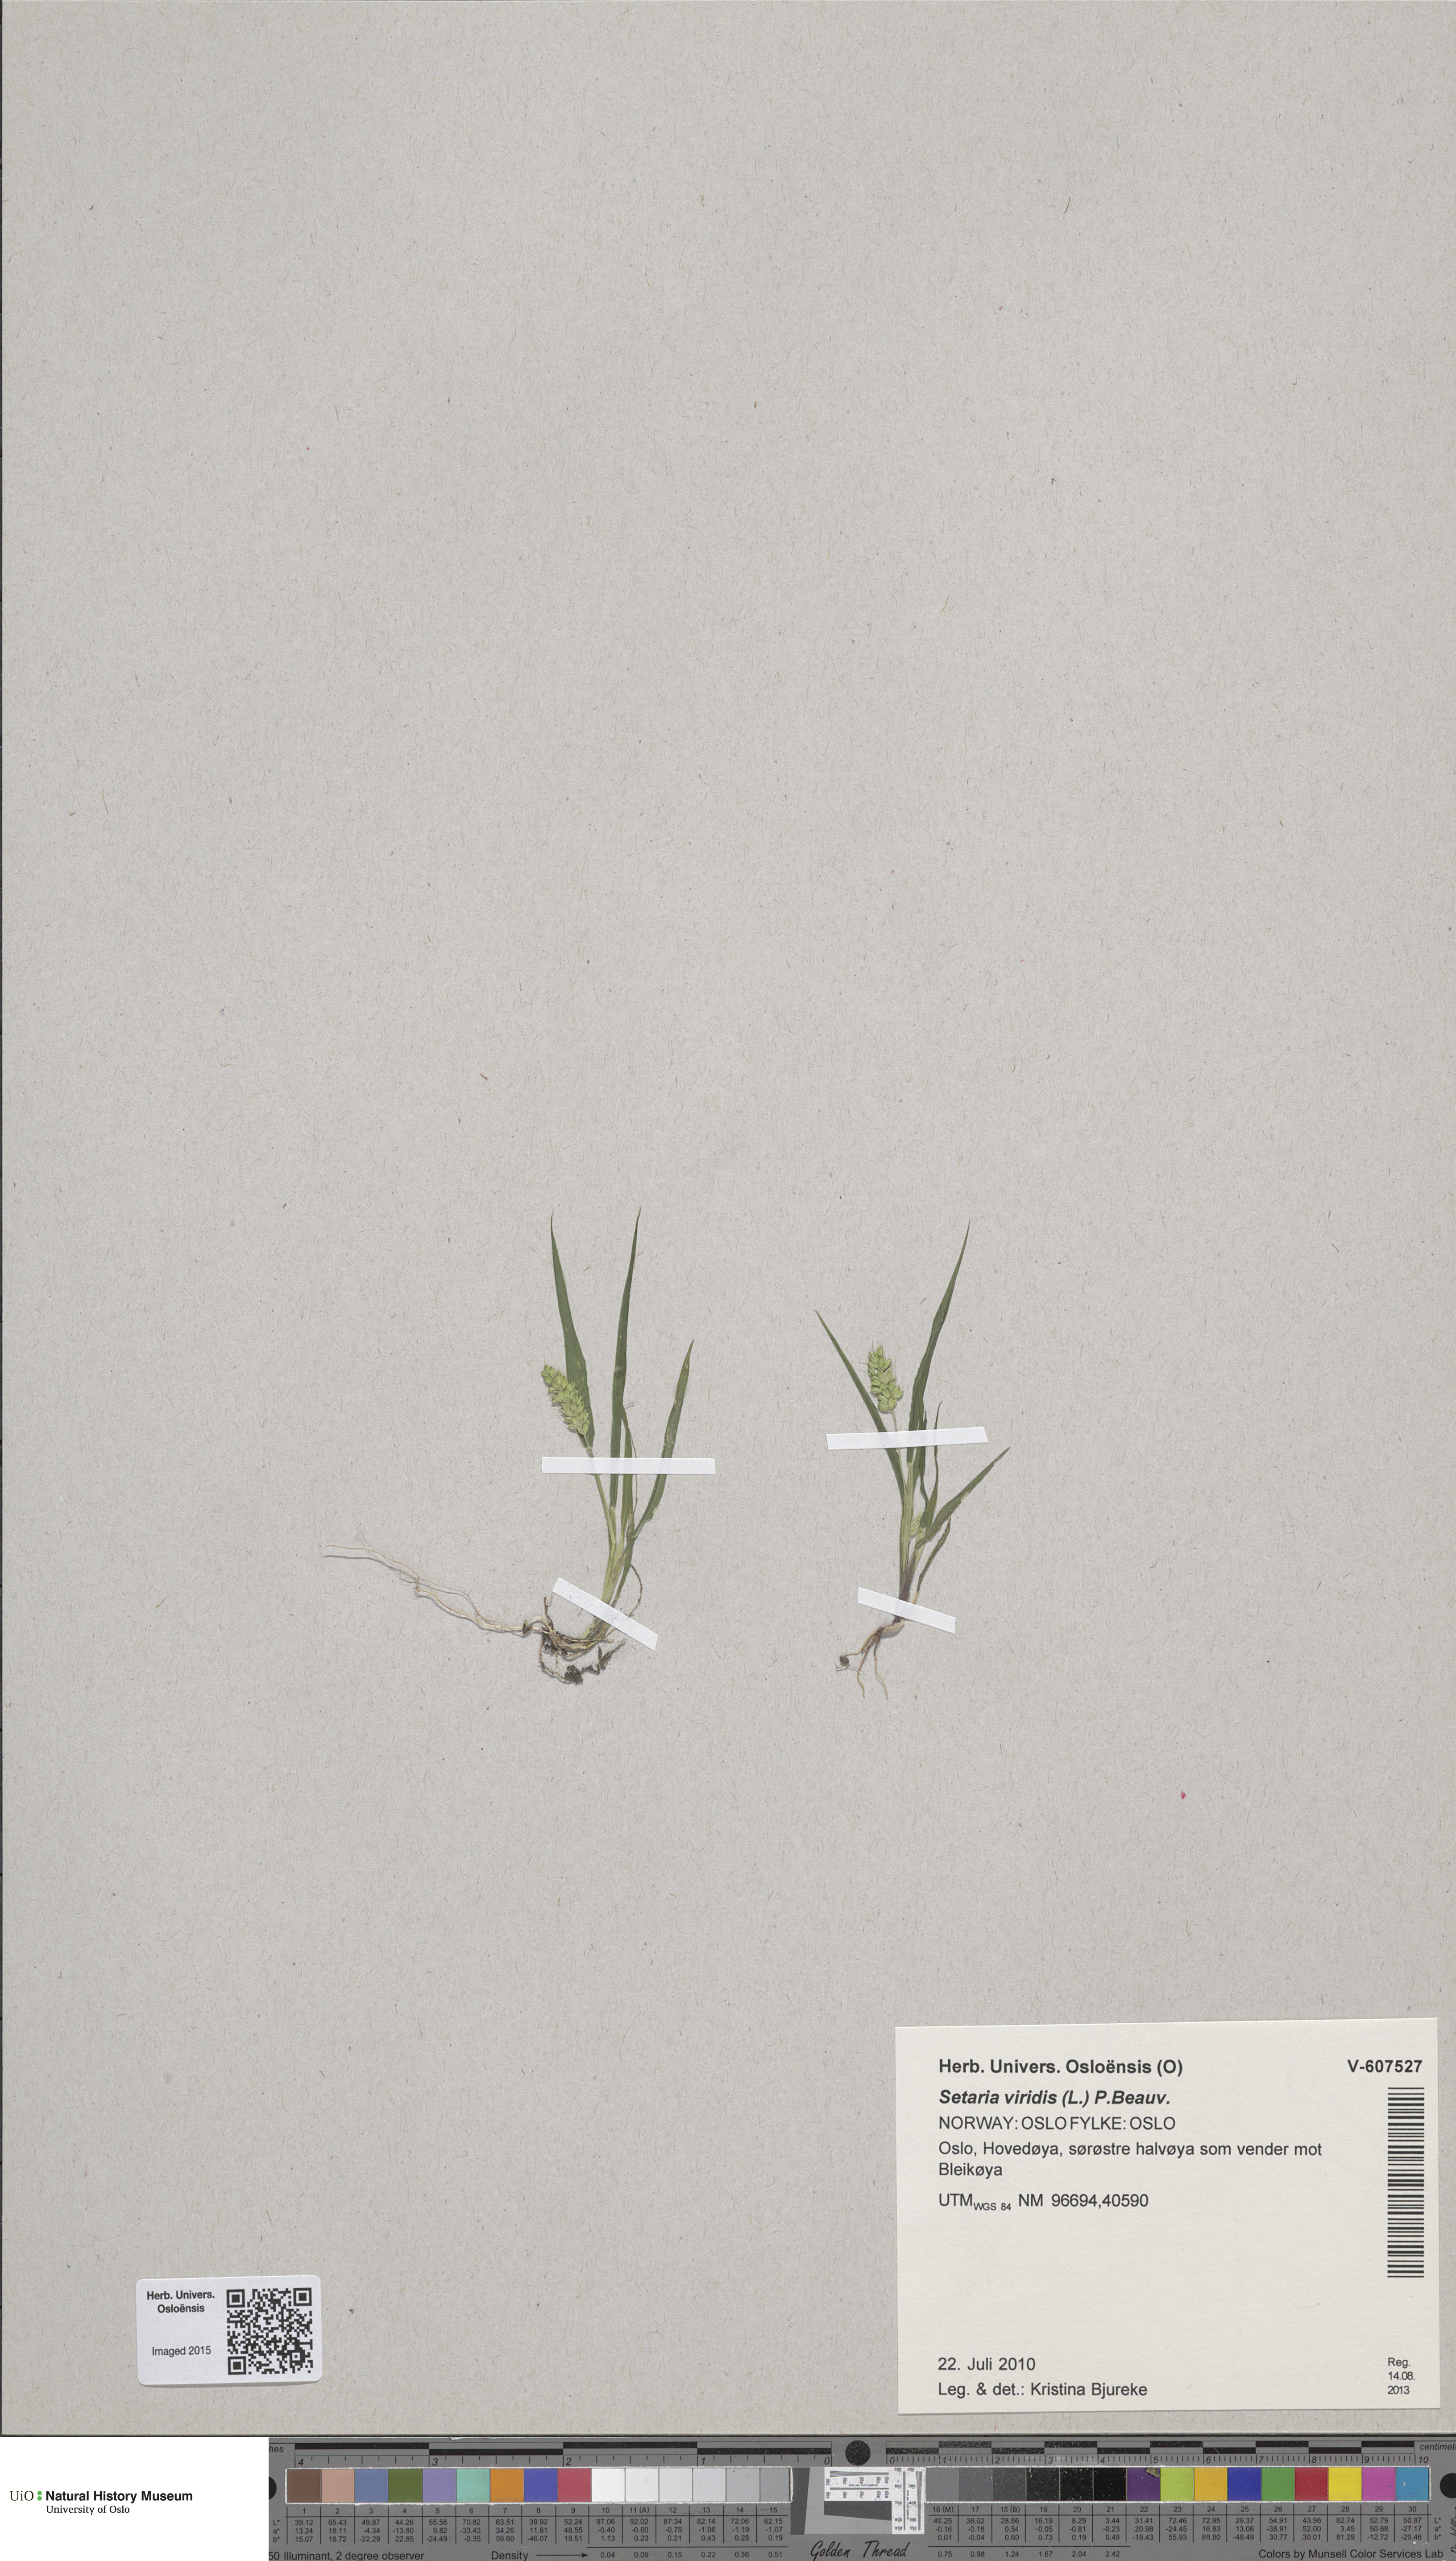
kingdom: Plantae
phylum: Tracheophyta
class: Liliopsida
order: Poales
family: Poaceae
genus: Setaria
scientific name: Setaria viridis
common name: Green bristlegrass
